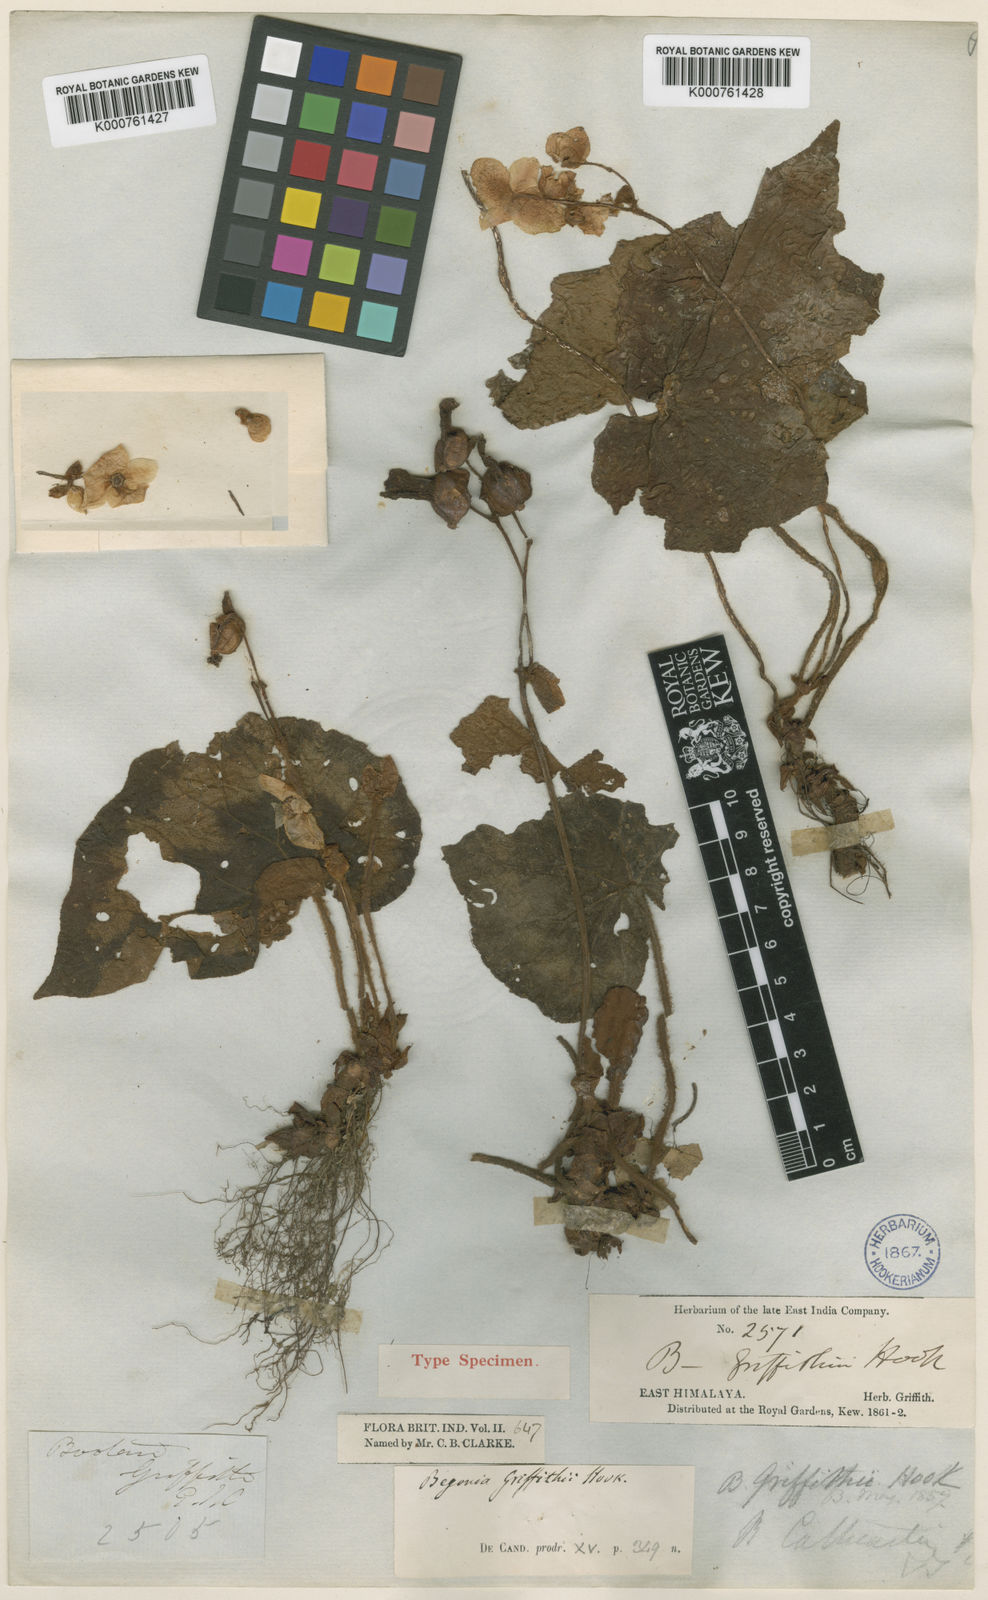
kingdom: Plantae
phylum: Tracheophyta
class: Magnoliopsida
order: Cucurbitales
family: Begoniaceae
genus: Begonia
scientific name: Begonia annulata
